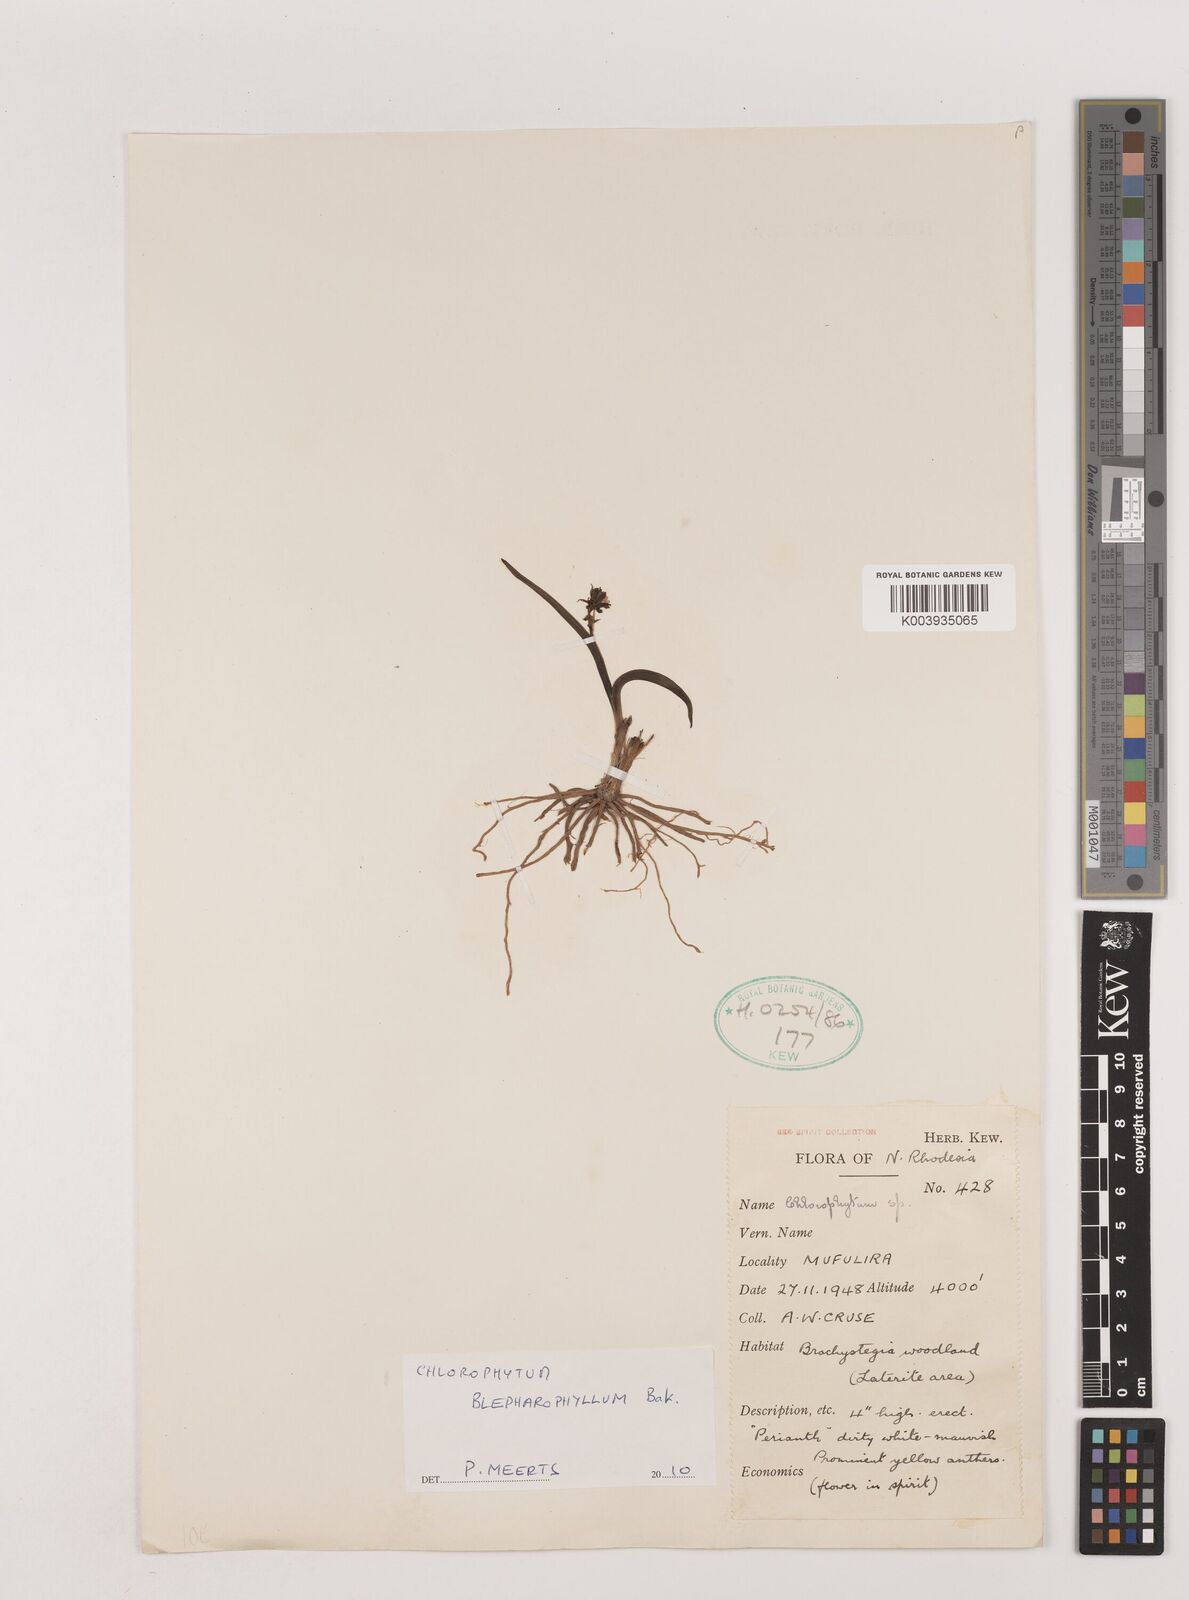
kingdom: Plantae
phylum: Tracheophyta
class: Liliopsida
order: Asparagales
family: Asparagaceae
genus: Chlorophytum
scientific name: Chlorophytum blepharophyllum
